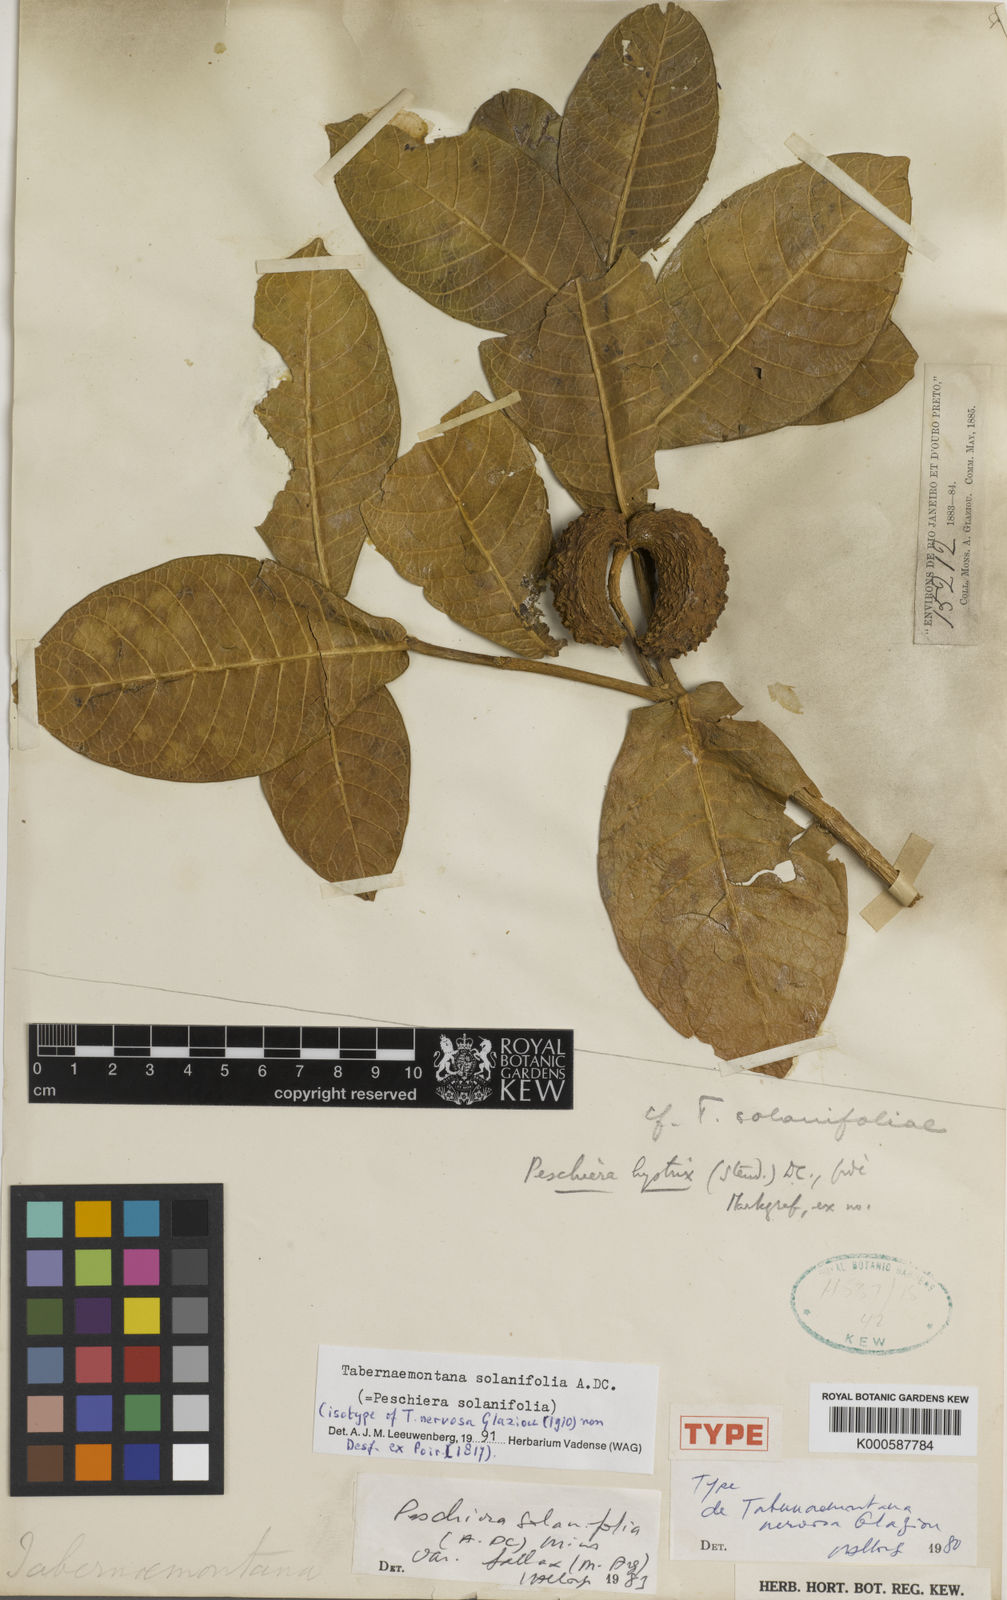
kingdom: Plantae
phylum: Tracheophyta
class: Magnoliopsida
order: Gentianales
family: Apocynaceae
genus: Tabernaemontana
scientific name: Tabernaemontana solanifolia
